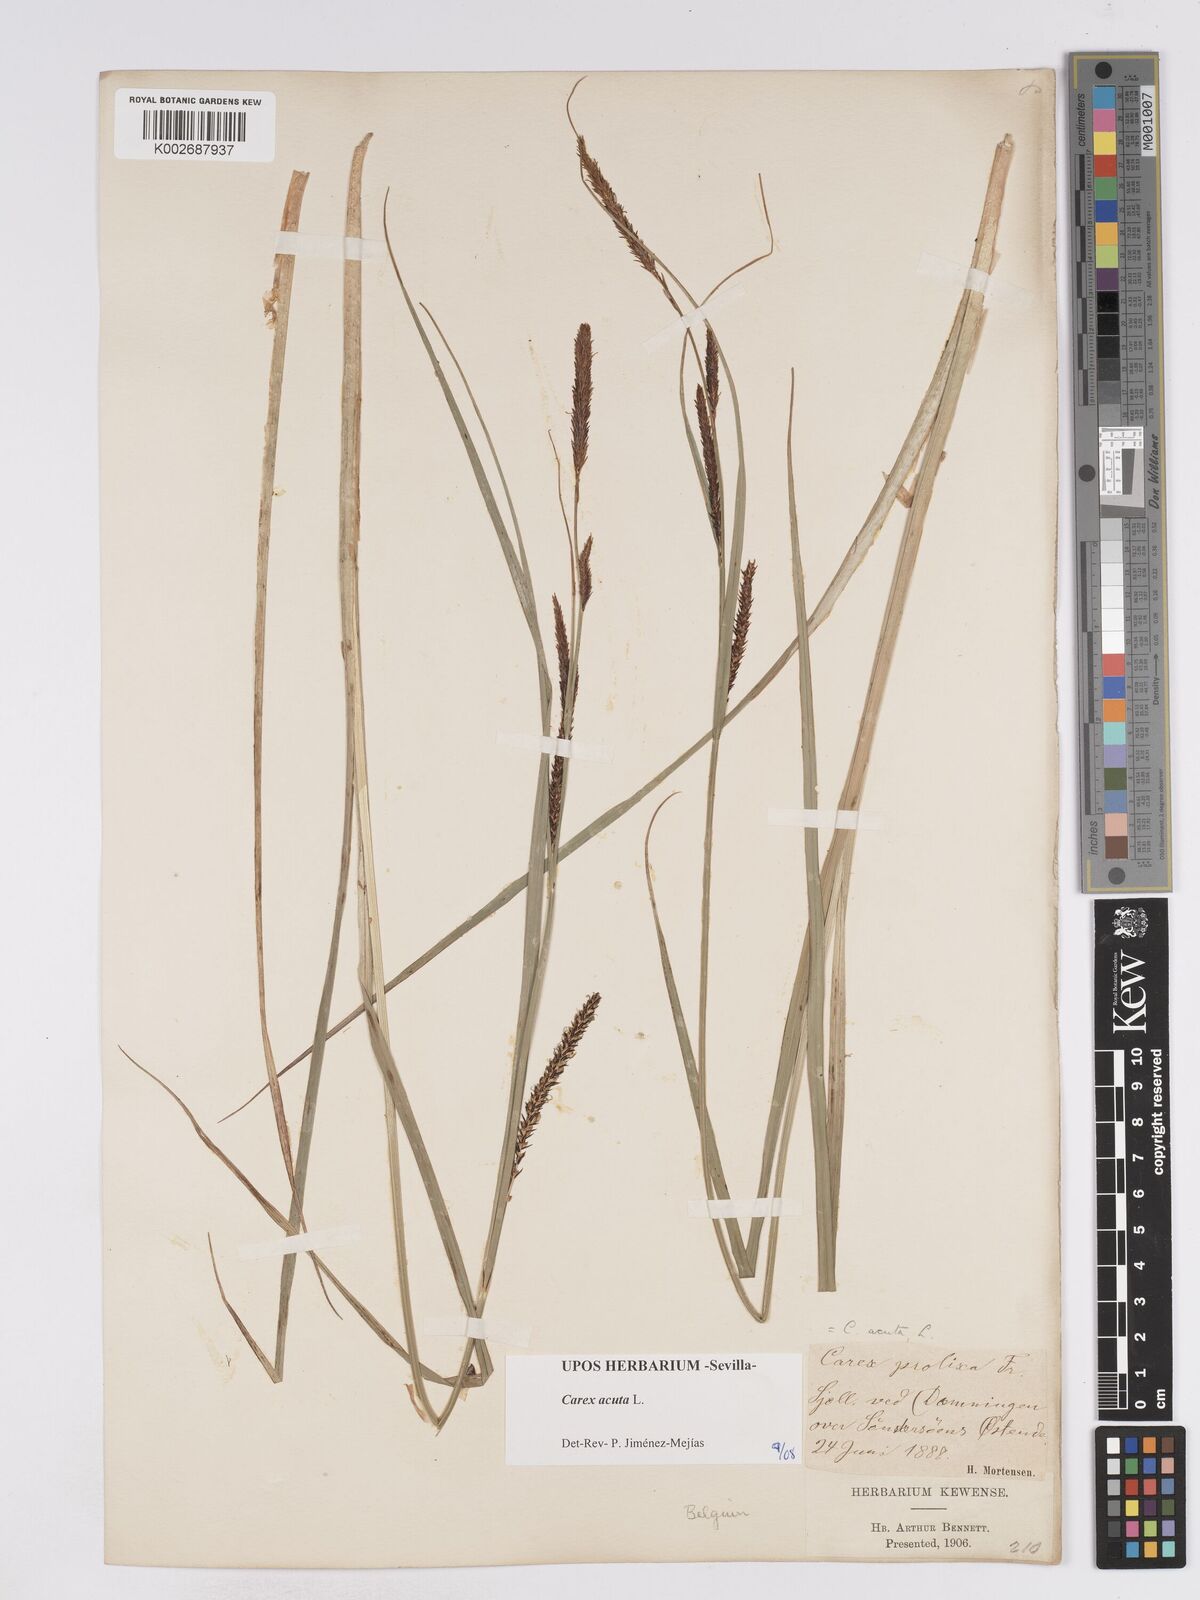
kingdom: Plantae
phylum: Tracheophyta
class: Liliopsida
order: Poales
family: Cyperaceae
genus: Carex
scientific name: Carex acuta
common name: Slender tufted-sedge
